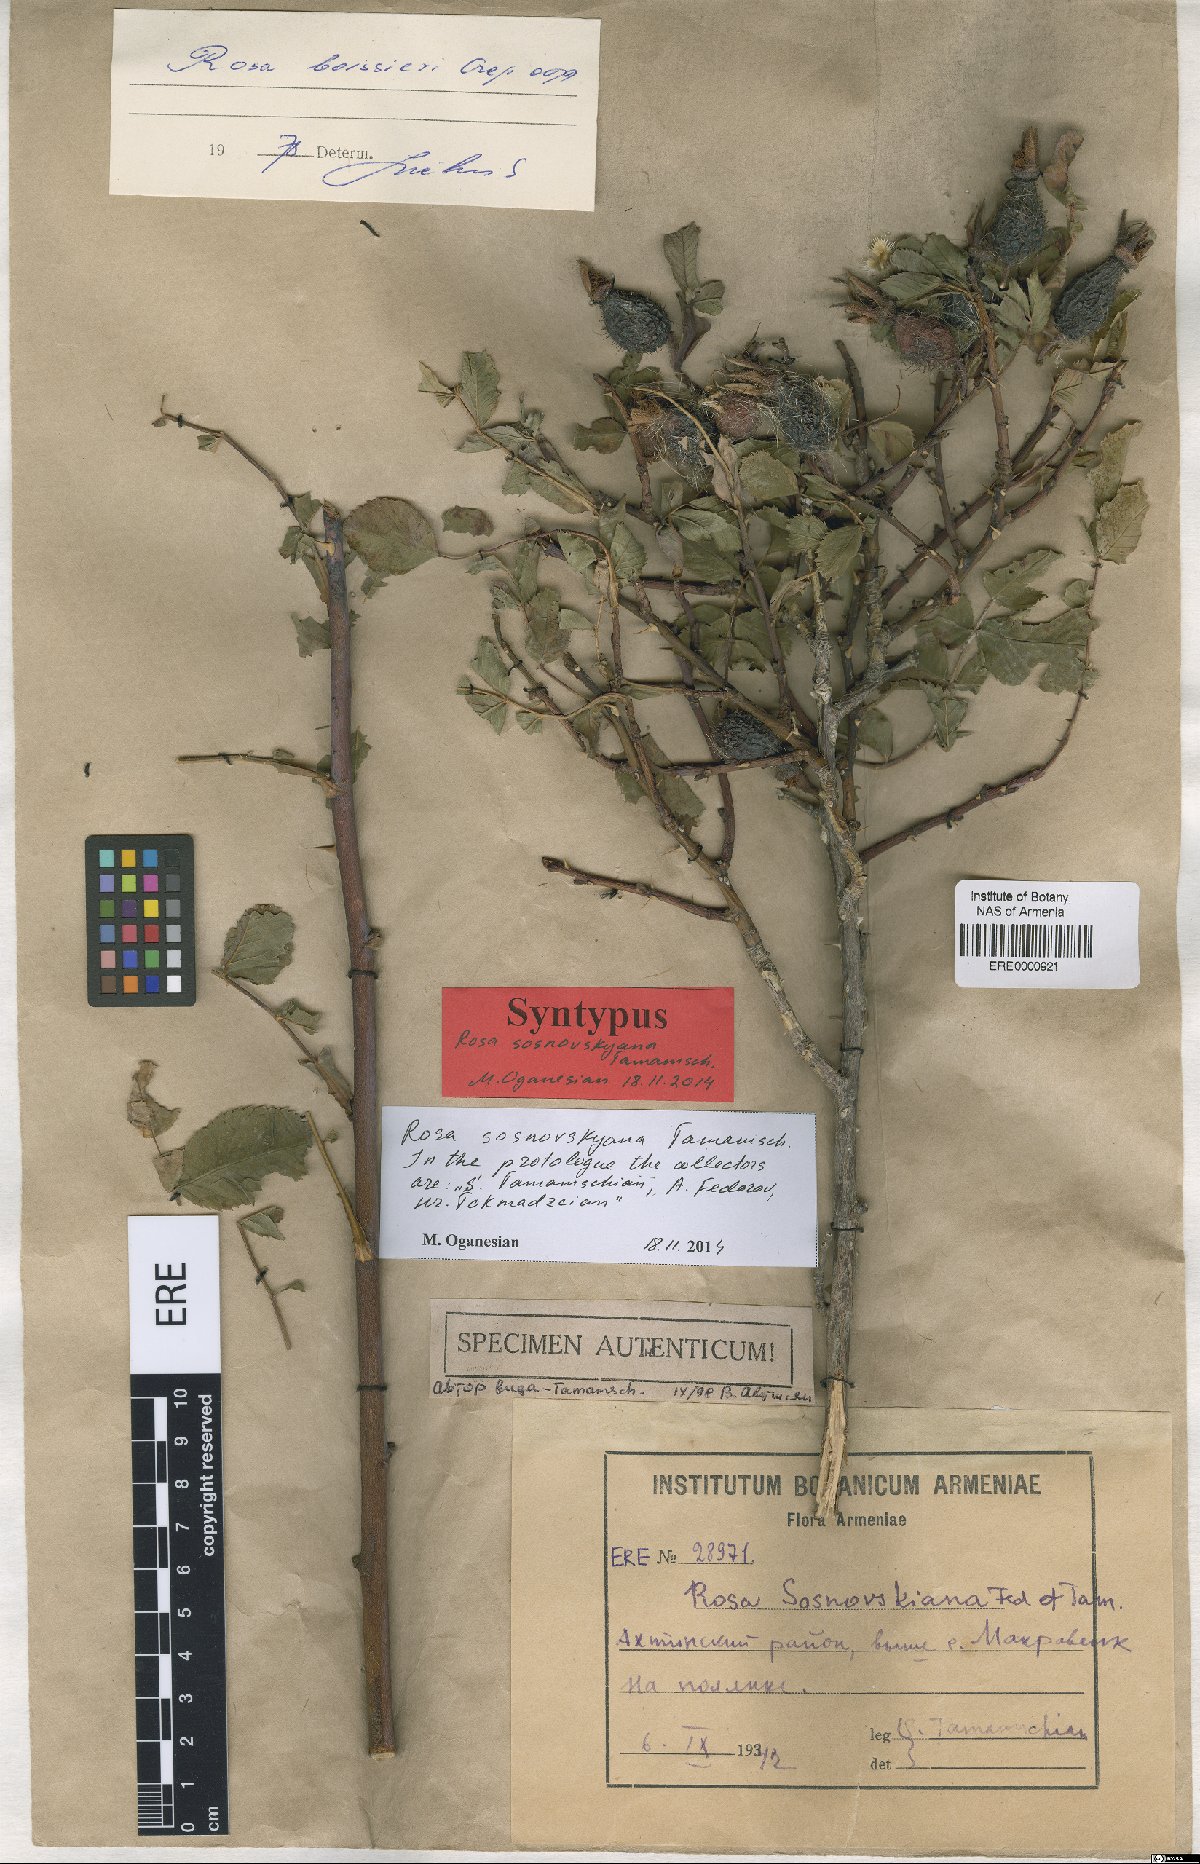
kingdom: Plantae
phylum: Tracheophyta
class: Magnoliopsida
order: Rosales
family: Rosaceae
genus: Rosa
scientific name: Rosa boissieri
